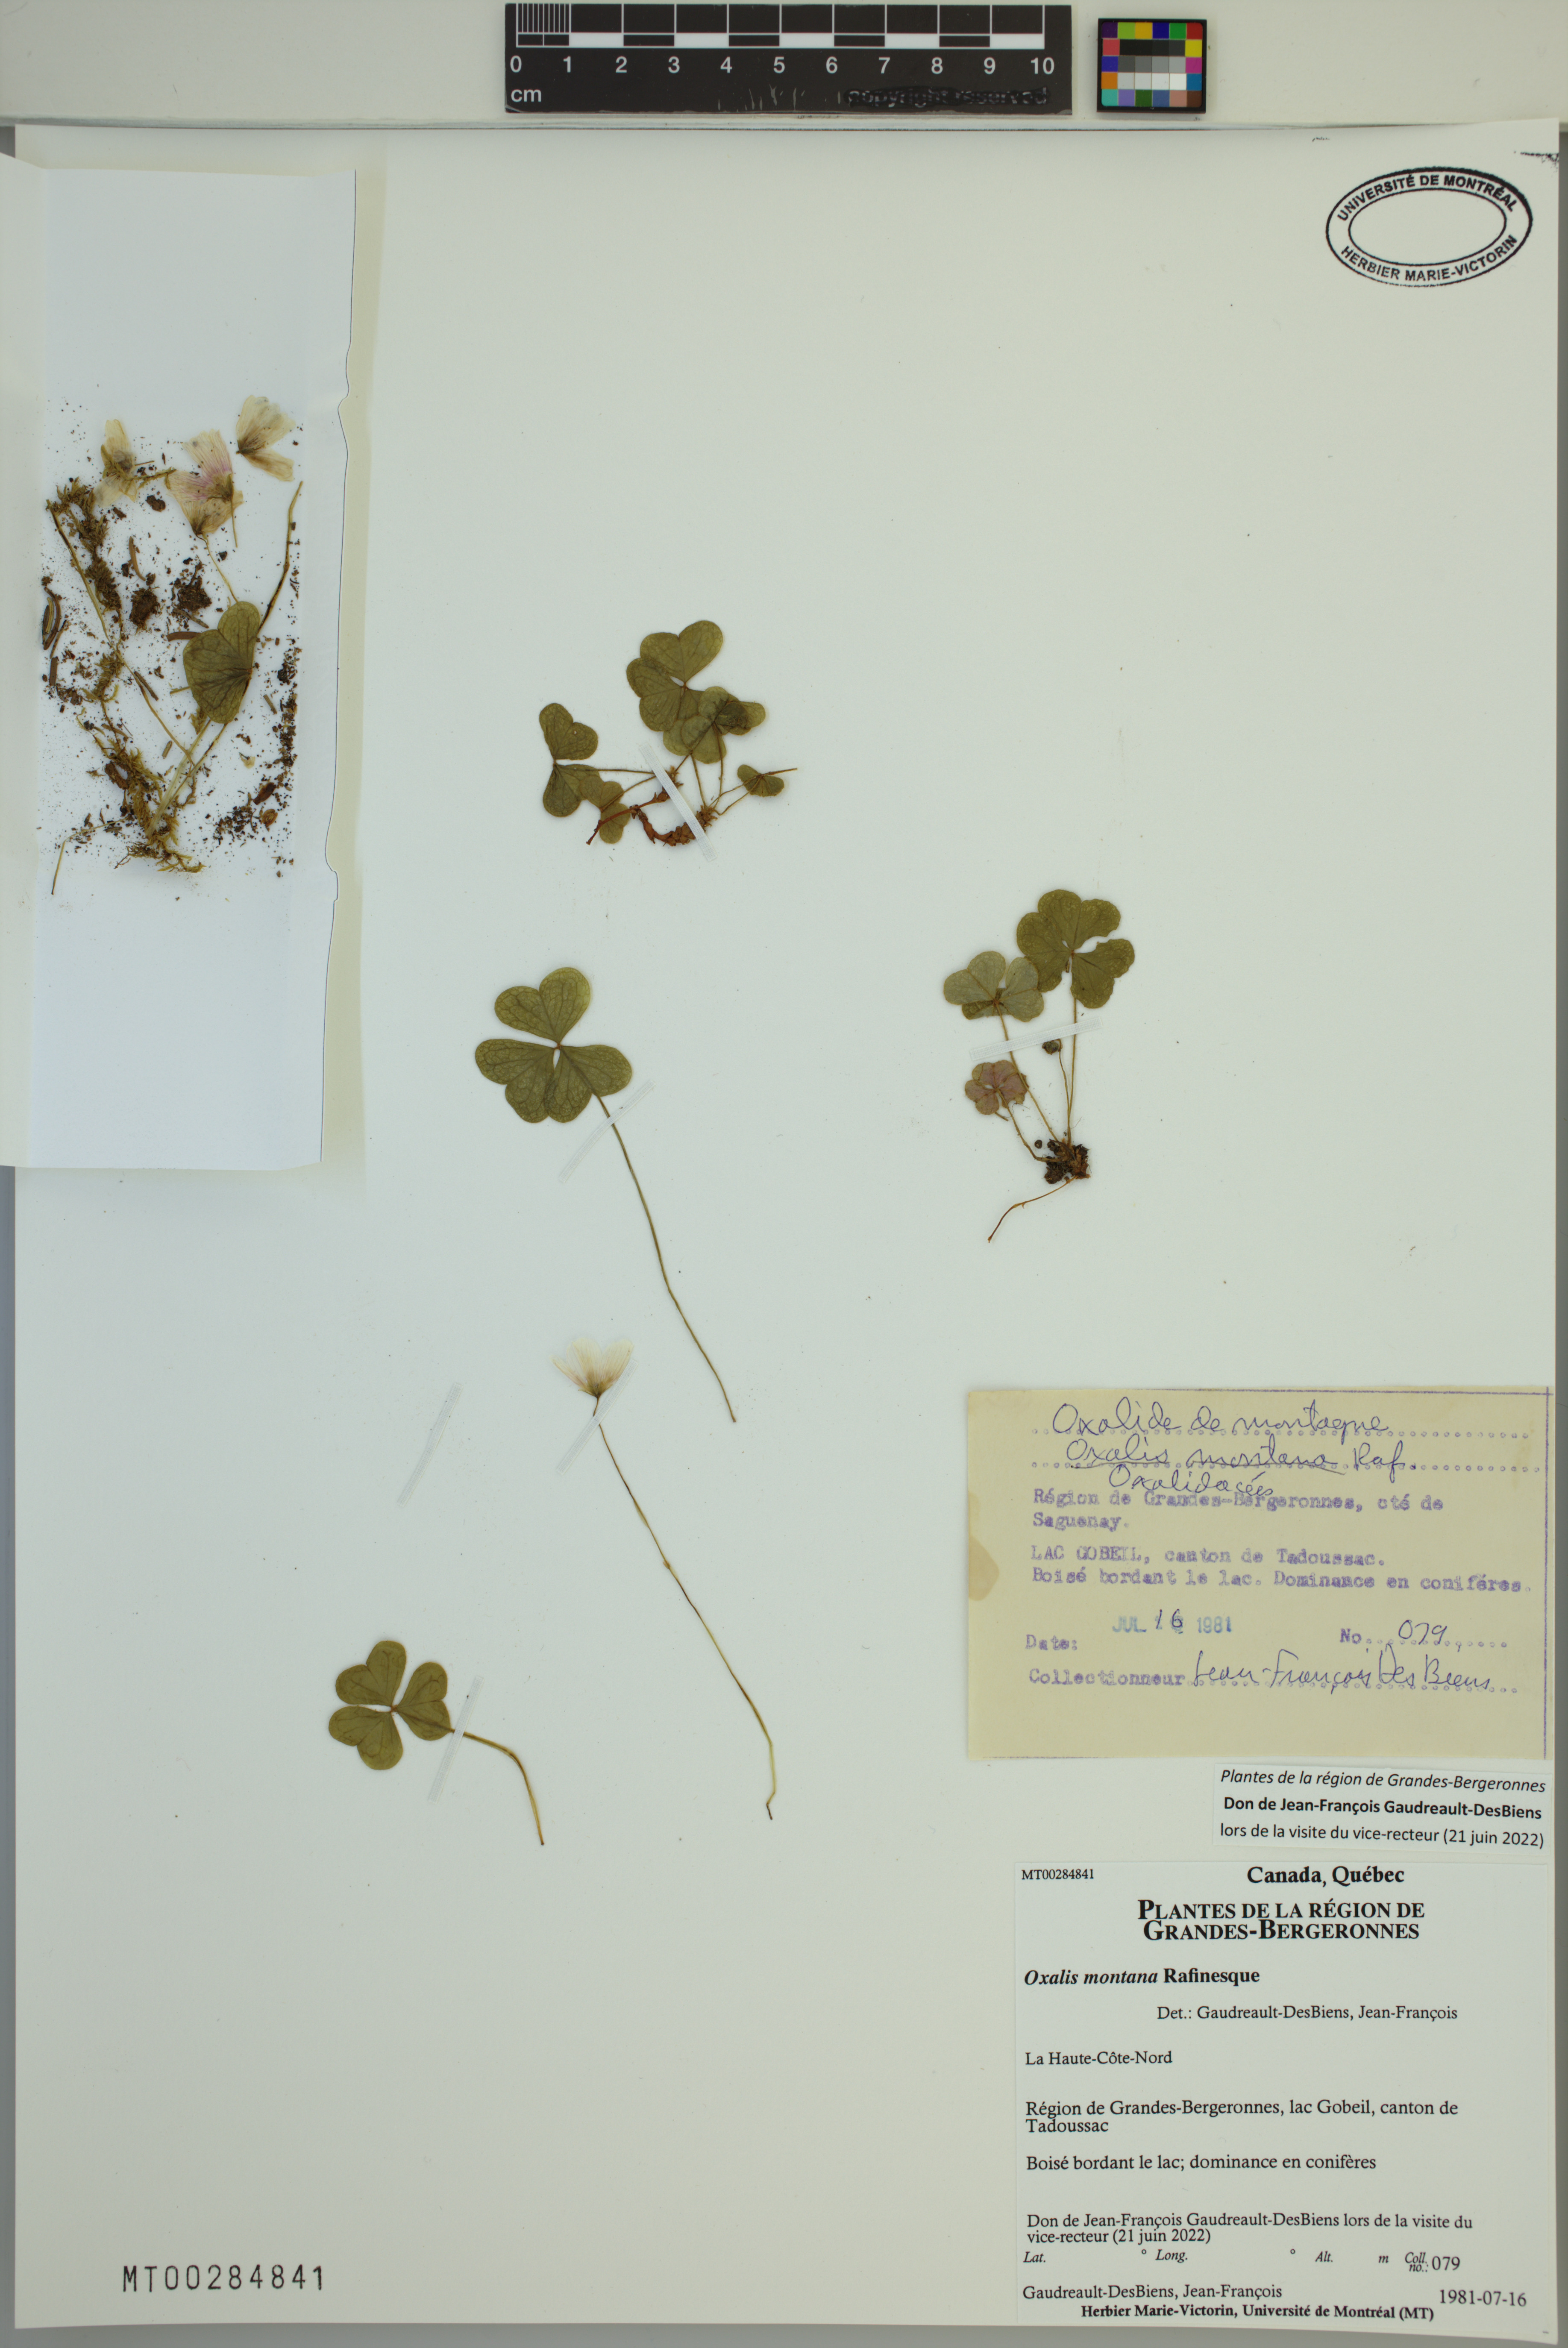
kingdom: Plantae
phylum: Tracheophyta
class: Magnoliopsida
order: Oxalidales
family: Oxalidaceae
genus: Oxalis
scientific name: Oxalis montana
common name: American wood-sorrel
